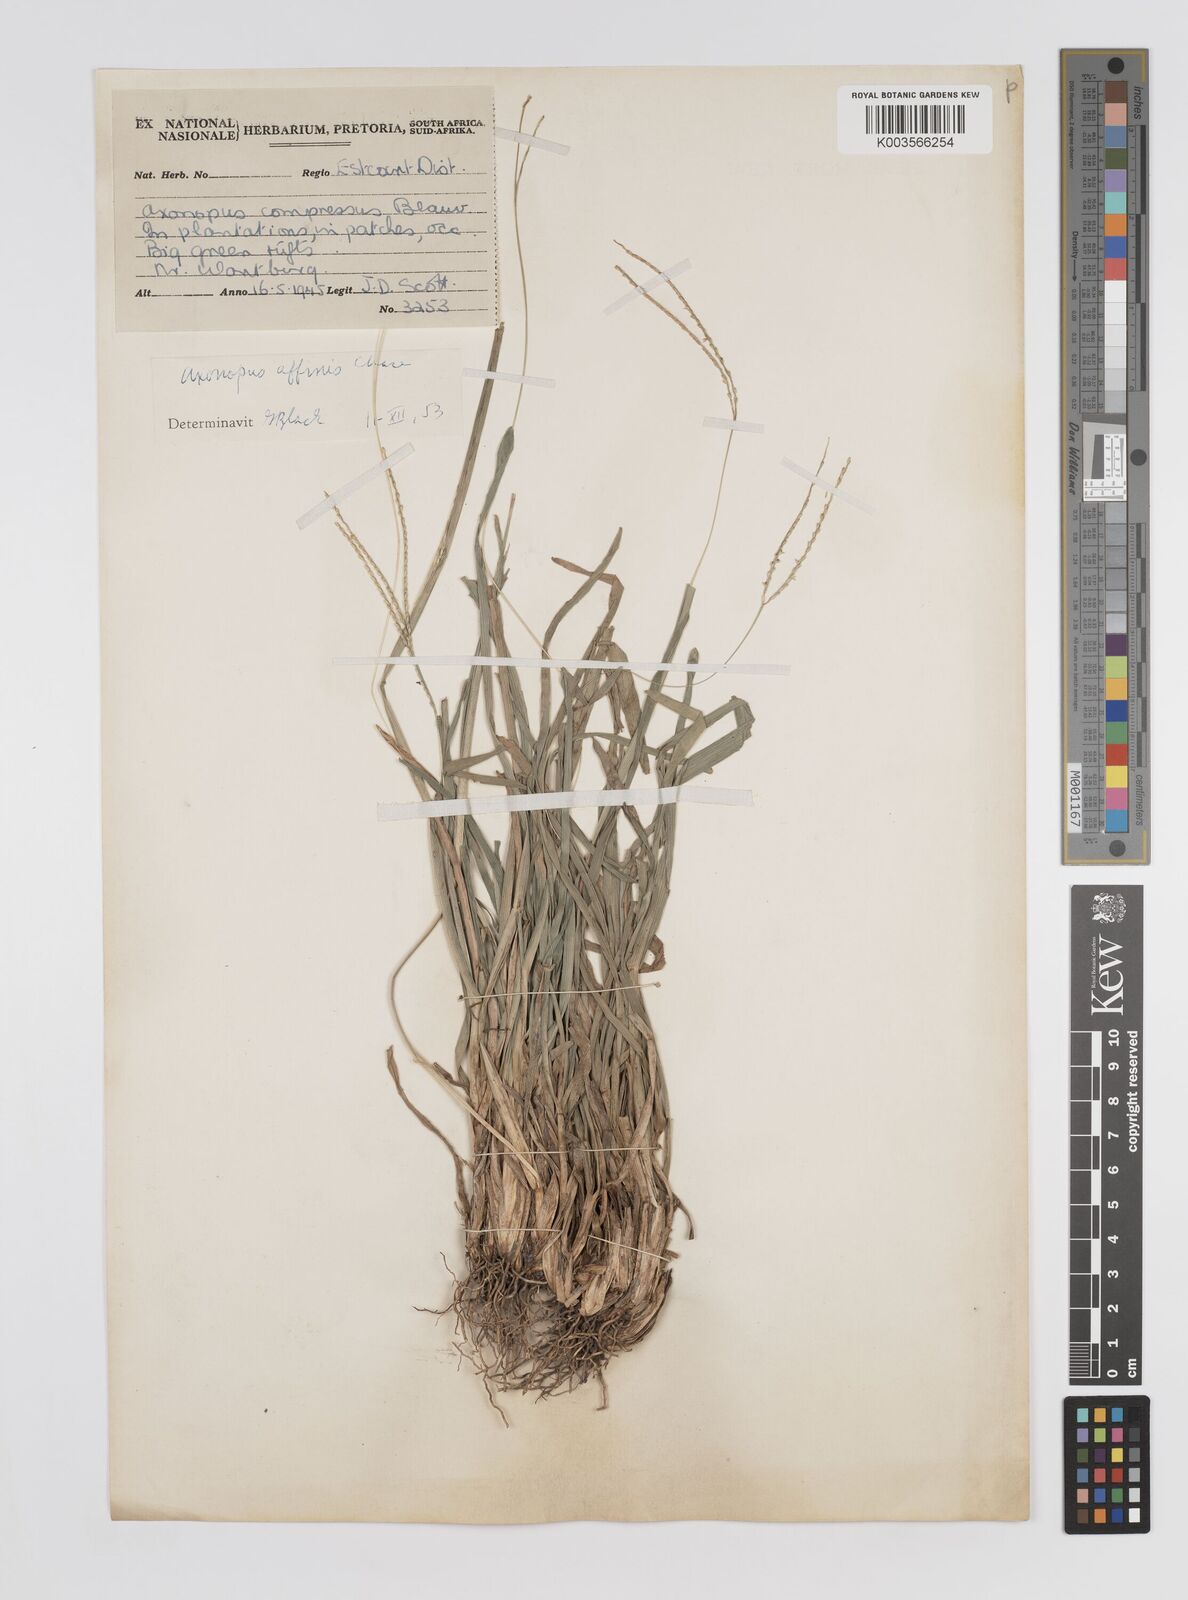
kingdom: Plantae
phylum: Tracheophyta
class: Liliopsida
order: Poales
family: Poaceae
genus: Axonopus
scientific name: Axonopus fissifolius
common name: Common carpetgrass
